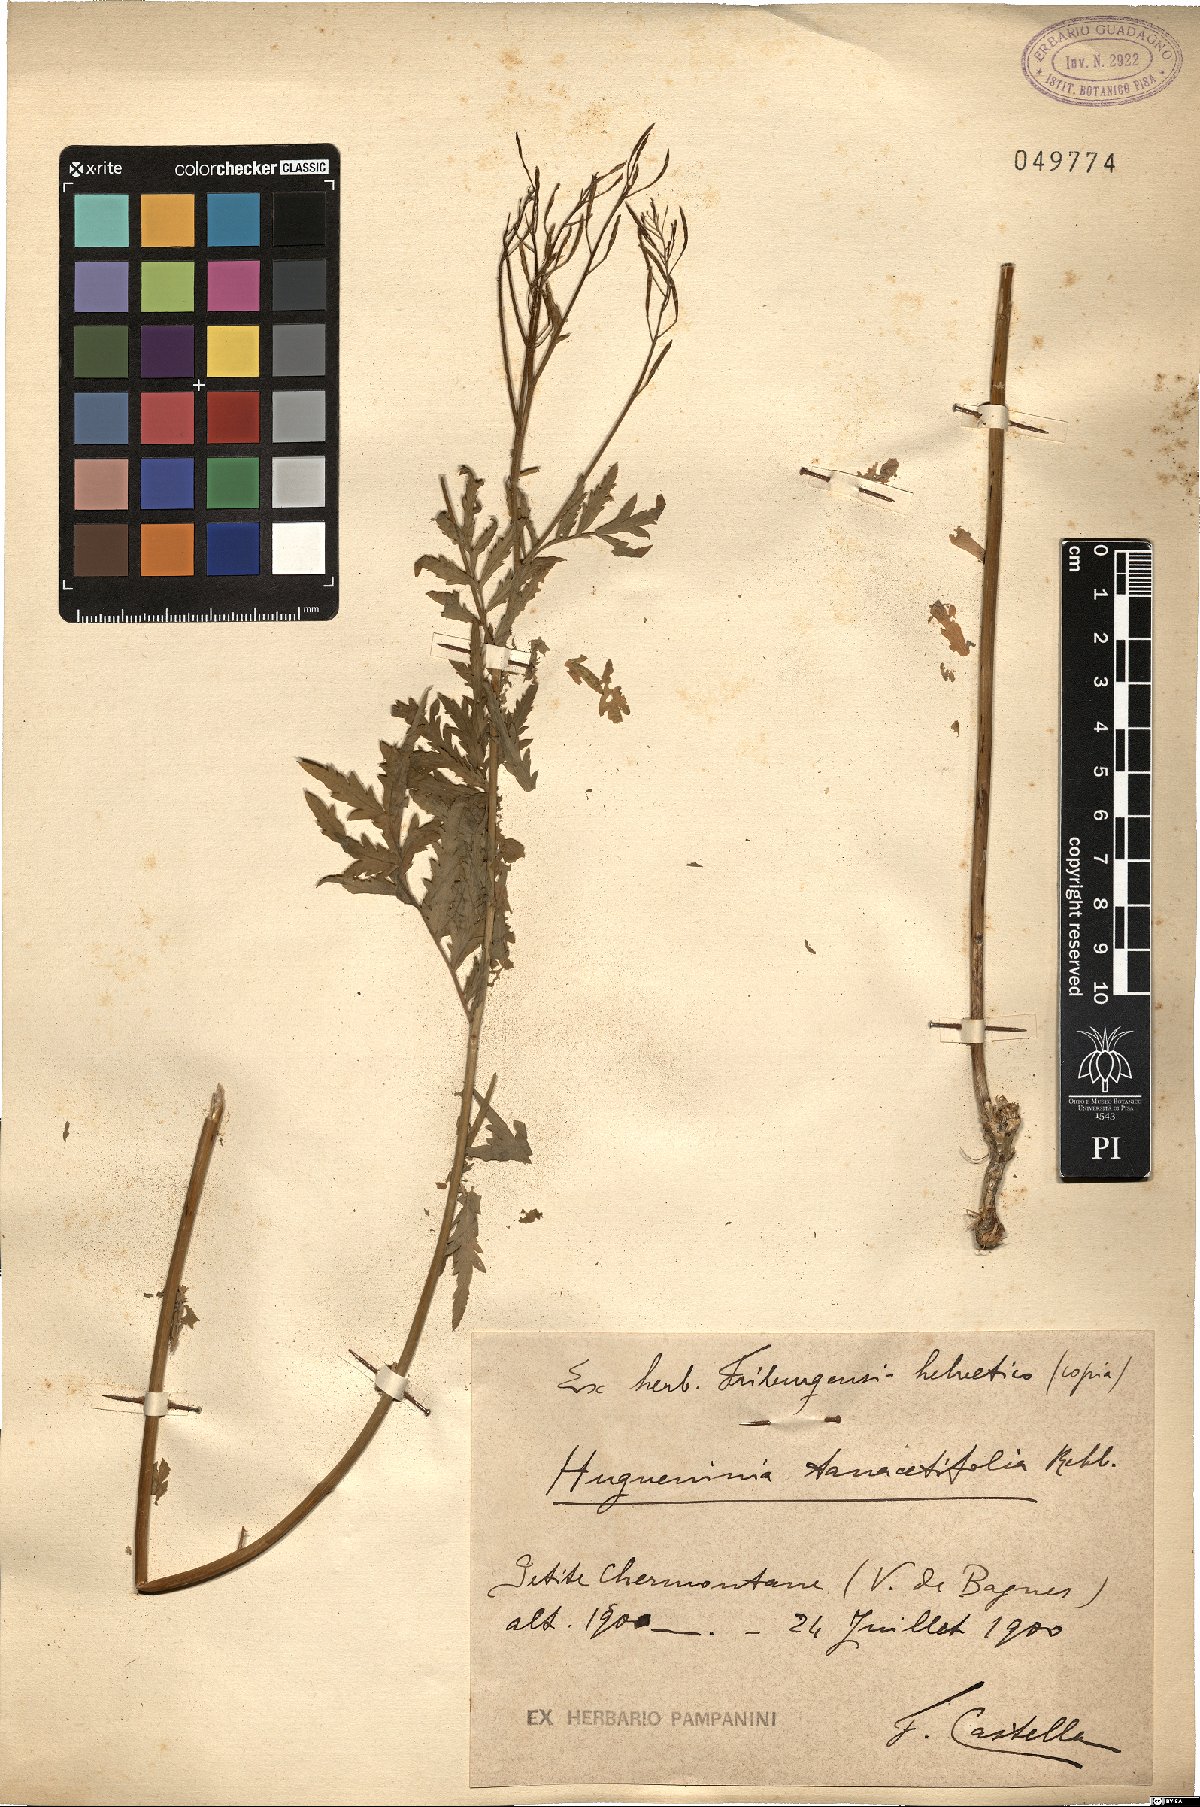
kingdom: Plantae
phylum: Tracheophyta
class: Magnoliopsida
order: Brassicales
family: Brassicaceae
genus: Descurainia
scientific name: Descurainia tanacetifolia
